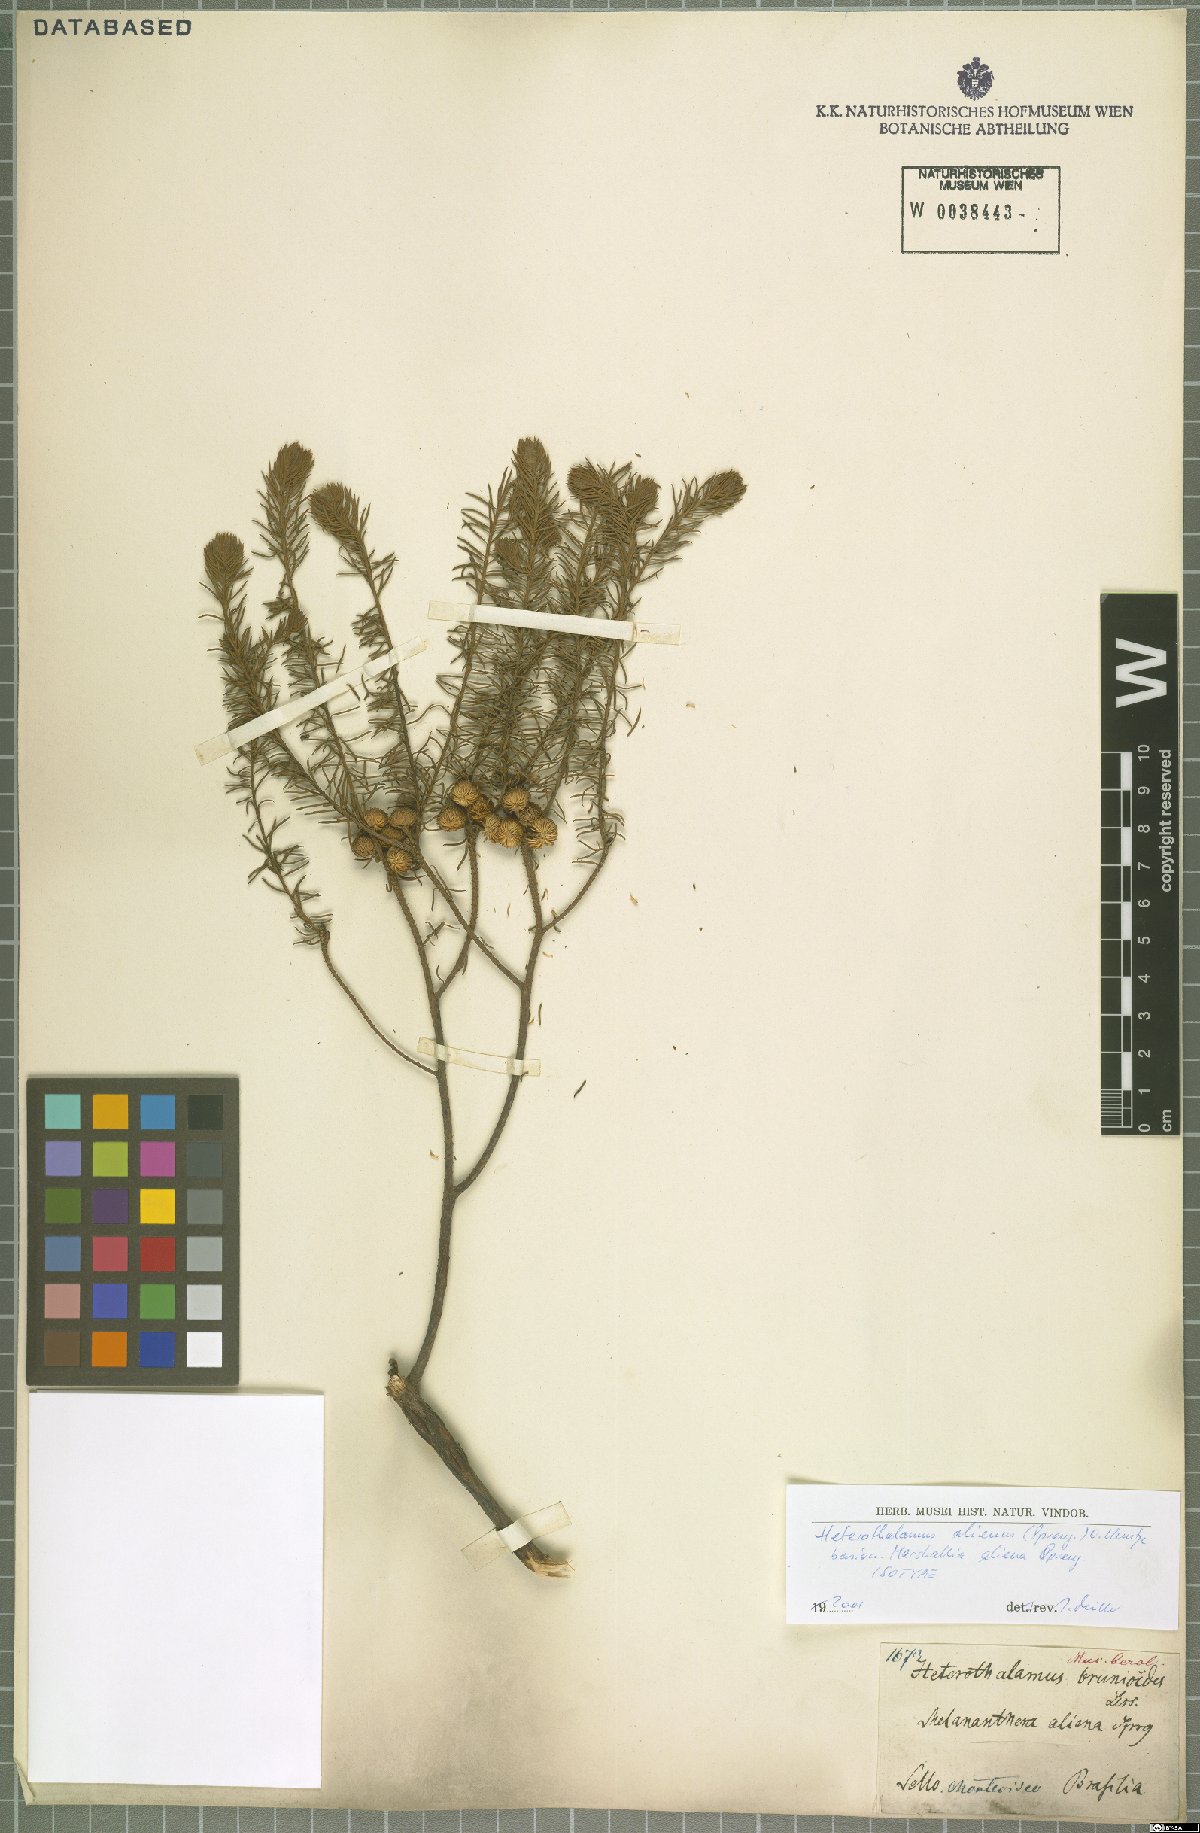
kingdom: Plantae
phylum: Tracheophyta
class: Magnoliopsida
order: Asterales
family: Asteraceae
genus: Baccharis
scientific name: Baccharis aliena
